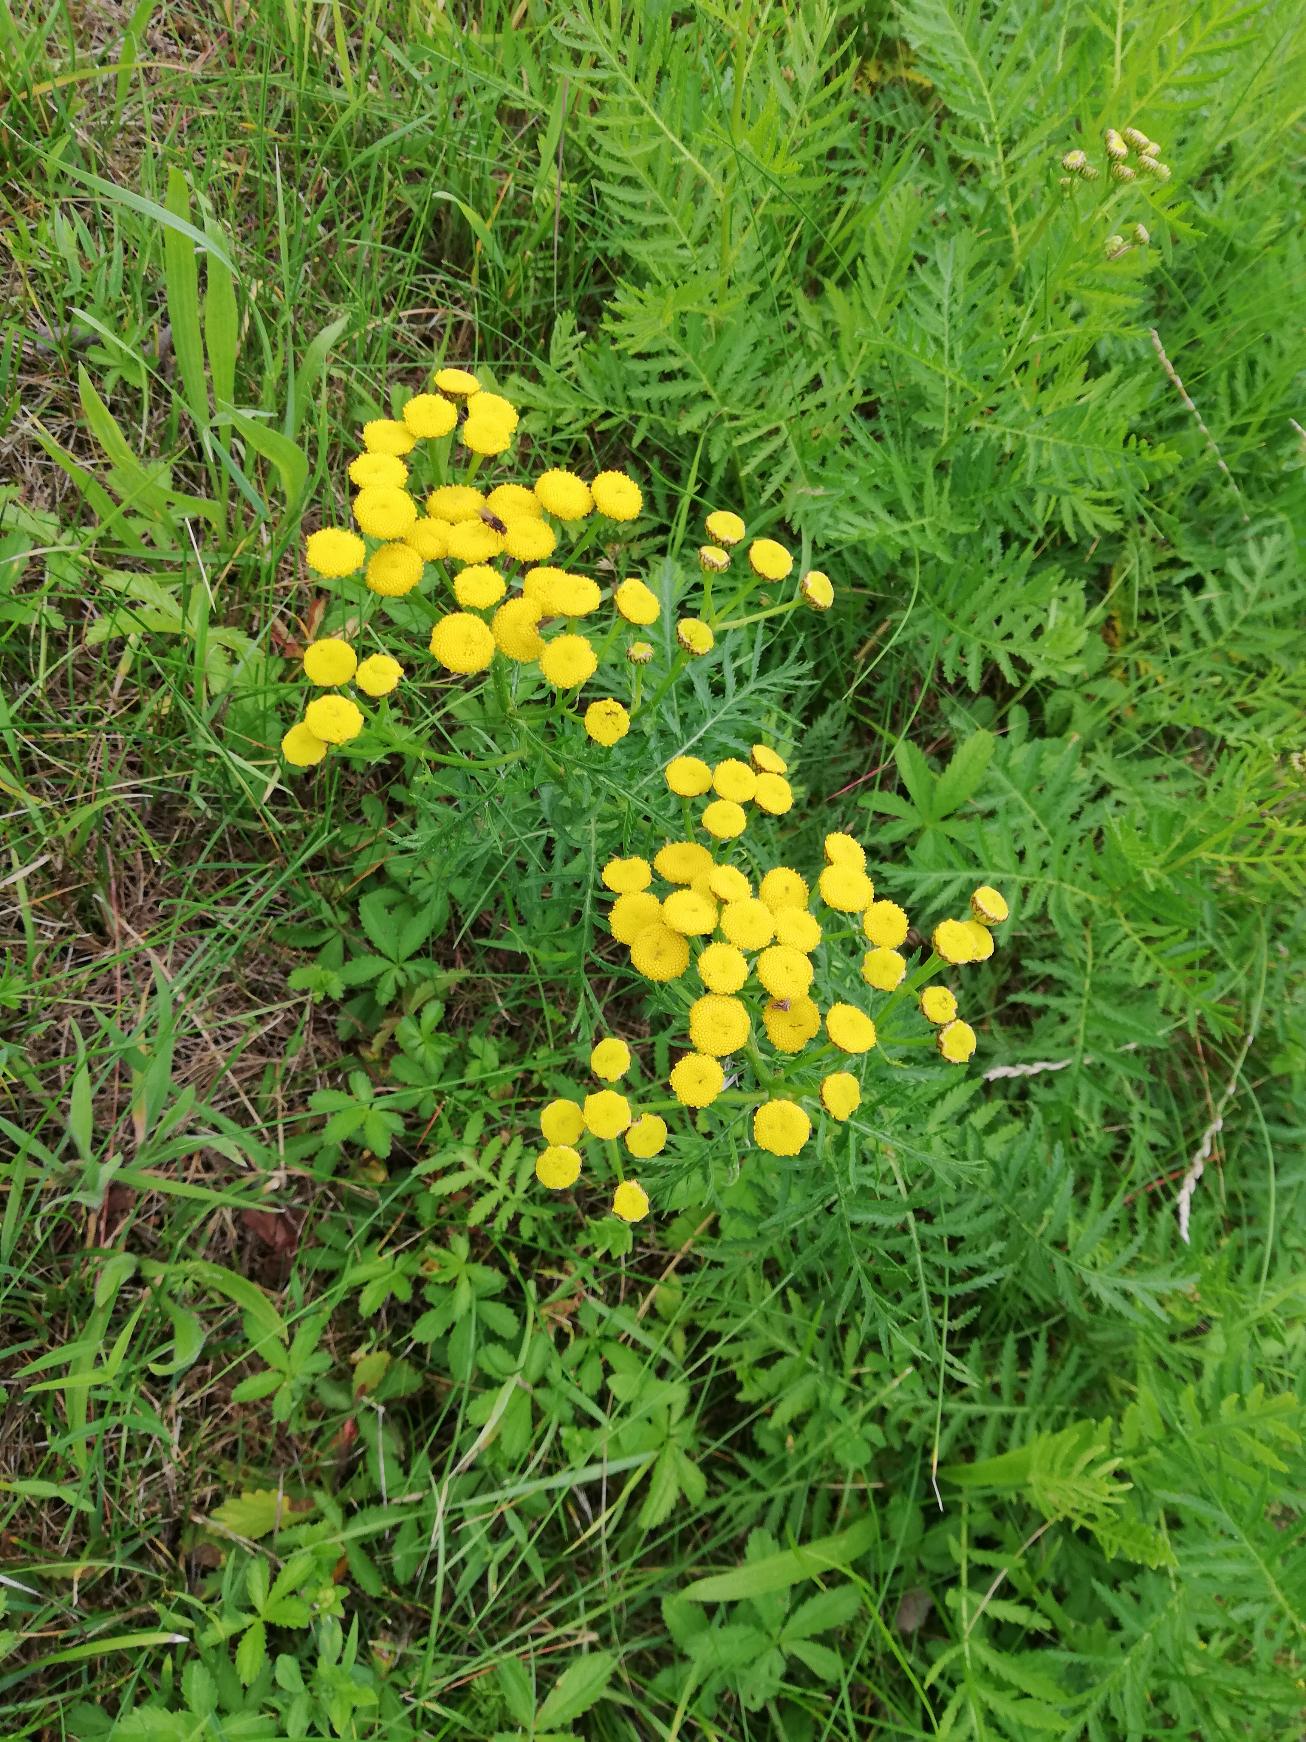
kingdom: Plantae
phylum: Tracheophyta
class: Magnoliopsida
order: Asterales
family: Asteraceae
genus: Tanacetum
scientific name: Tanacetum vulgare
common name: Rejnfan
